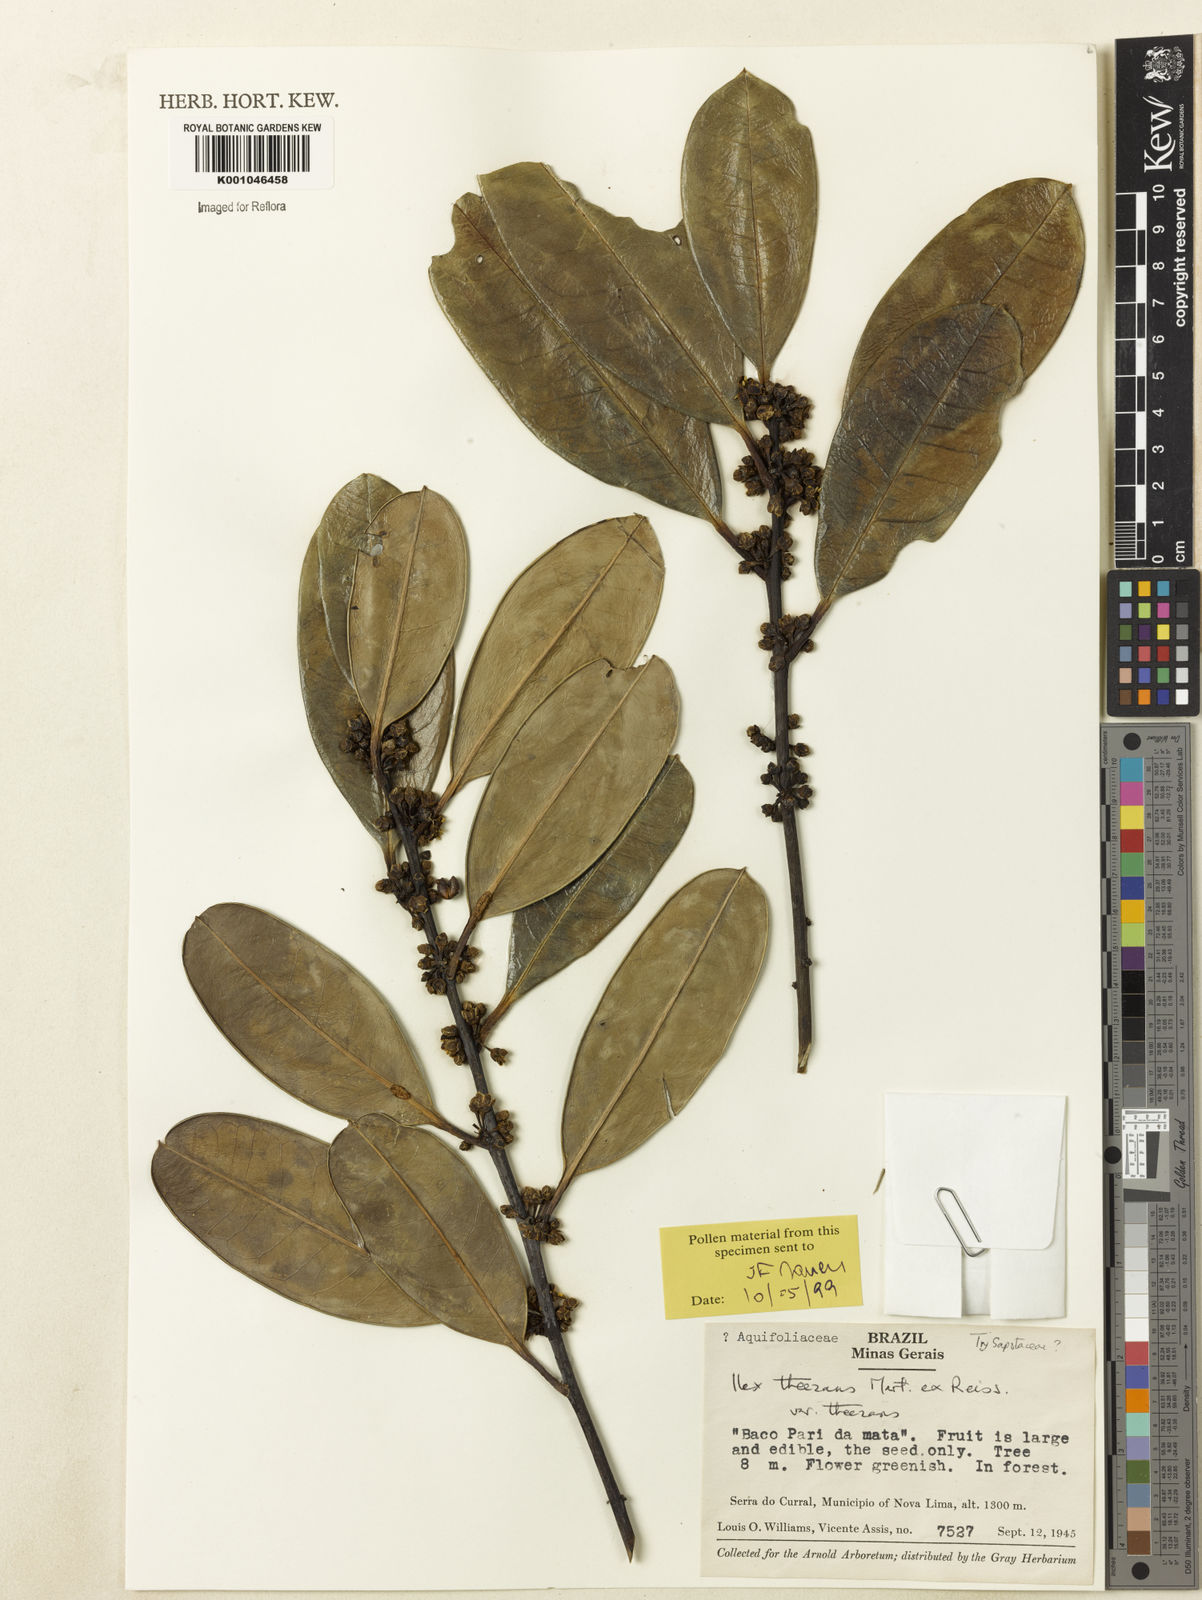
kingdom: Plantae
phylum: Tracheophyta
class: Magnoliopsida
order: Aquifoliales
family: Aquifoliaceae
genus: Ilex
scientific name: Ilex paraguariensis
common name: Paraguay tea
